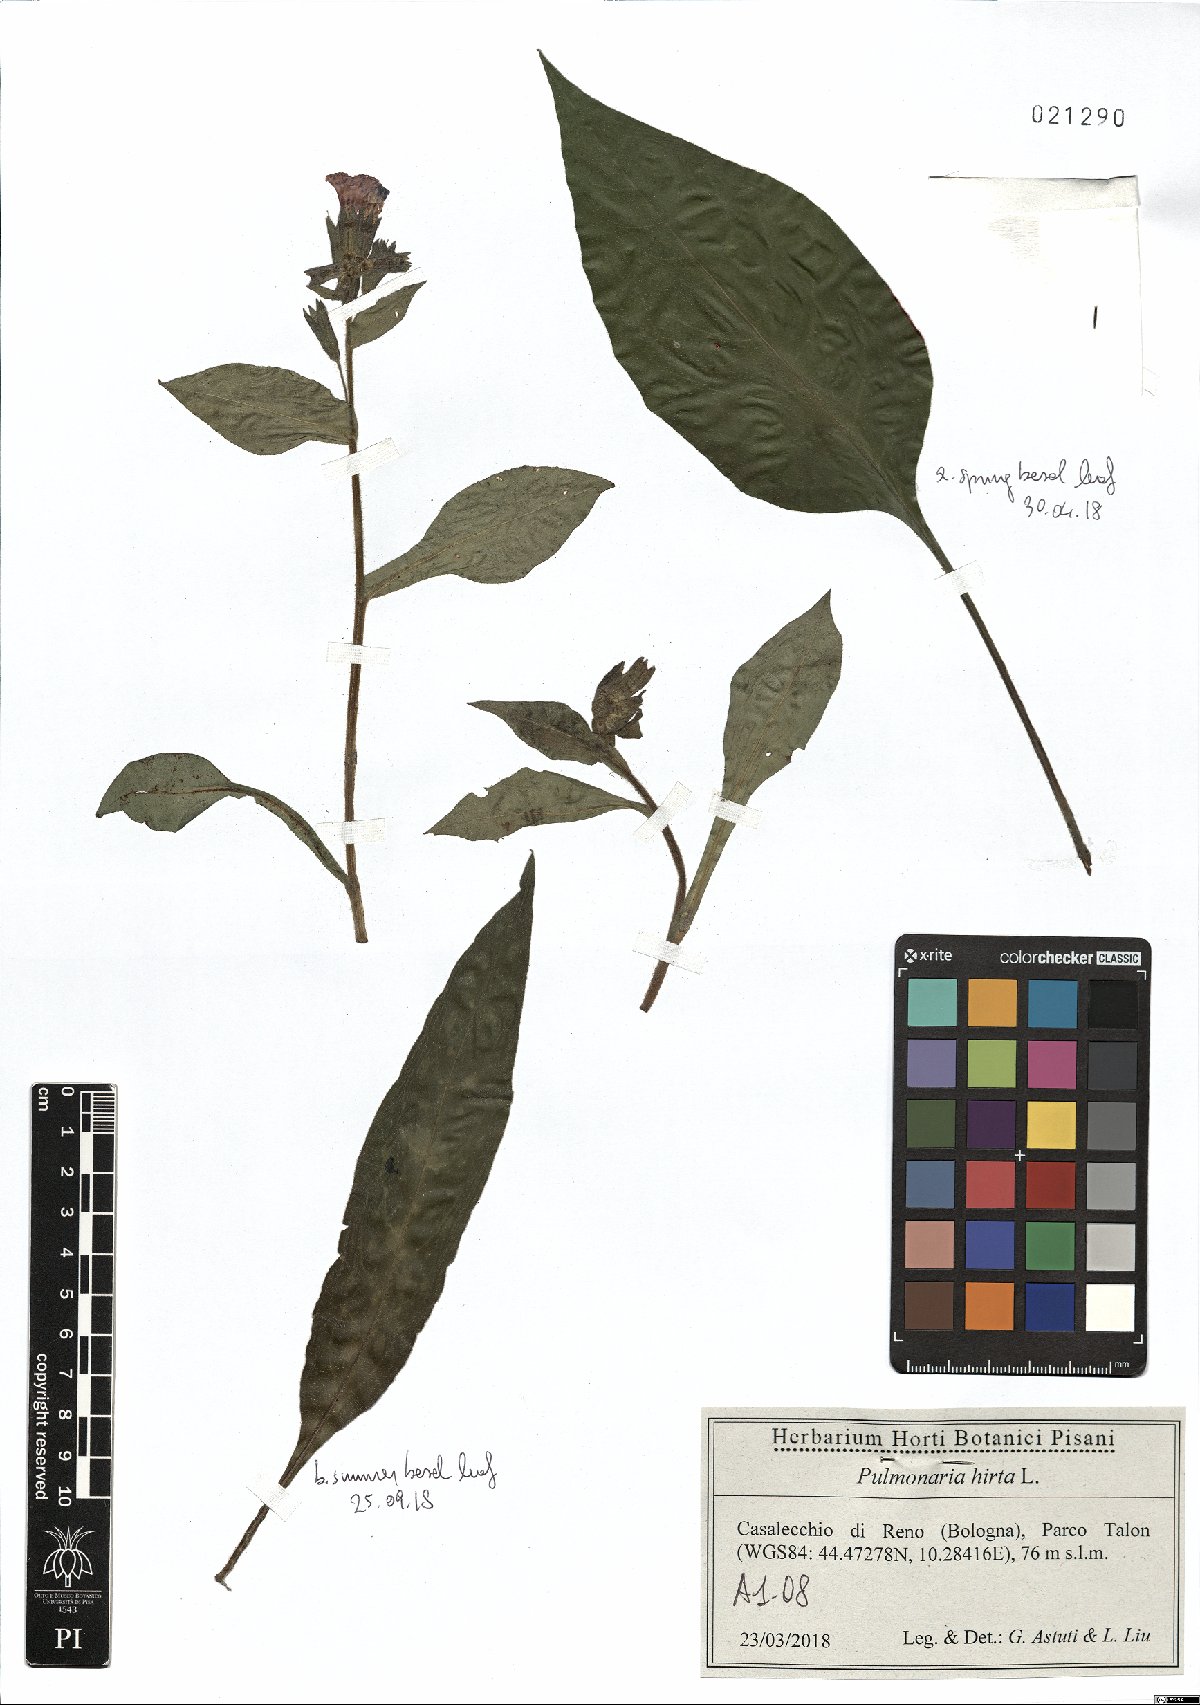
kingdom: Plantae
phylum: Tracheophyta
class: Magnoliopsida
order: Boraginales
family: Boraginaceae
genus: Pulmonaria
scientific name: Pulmonaria hirta
